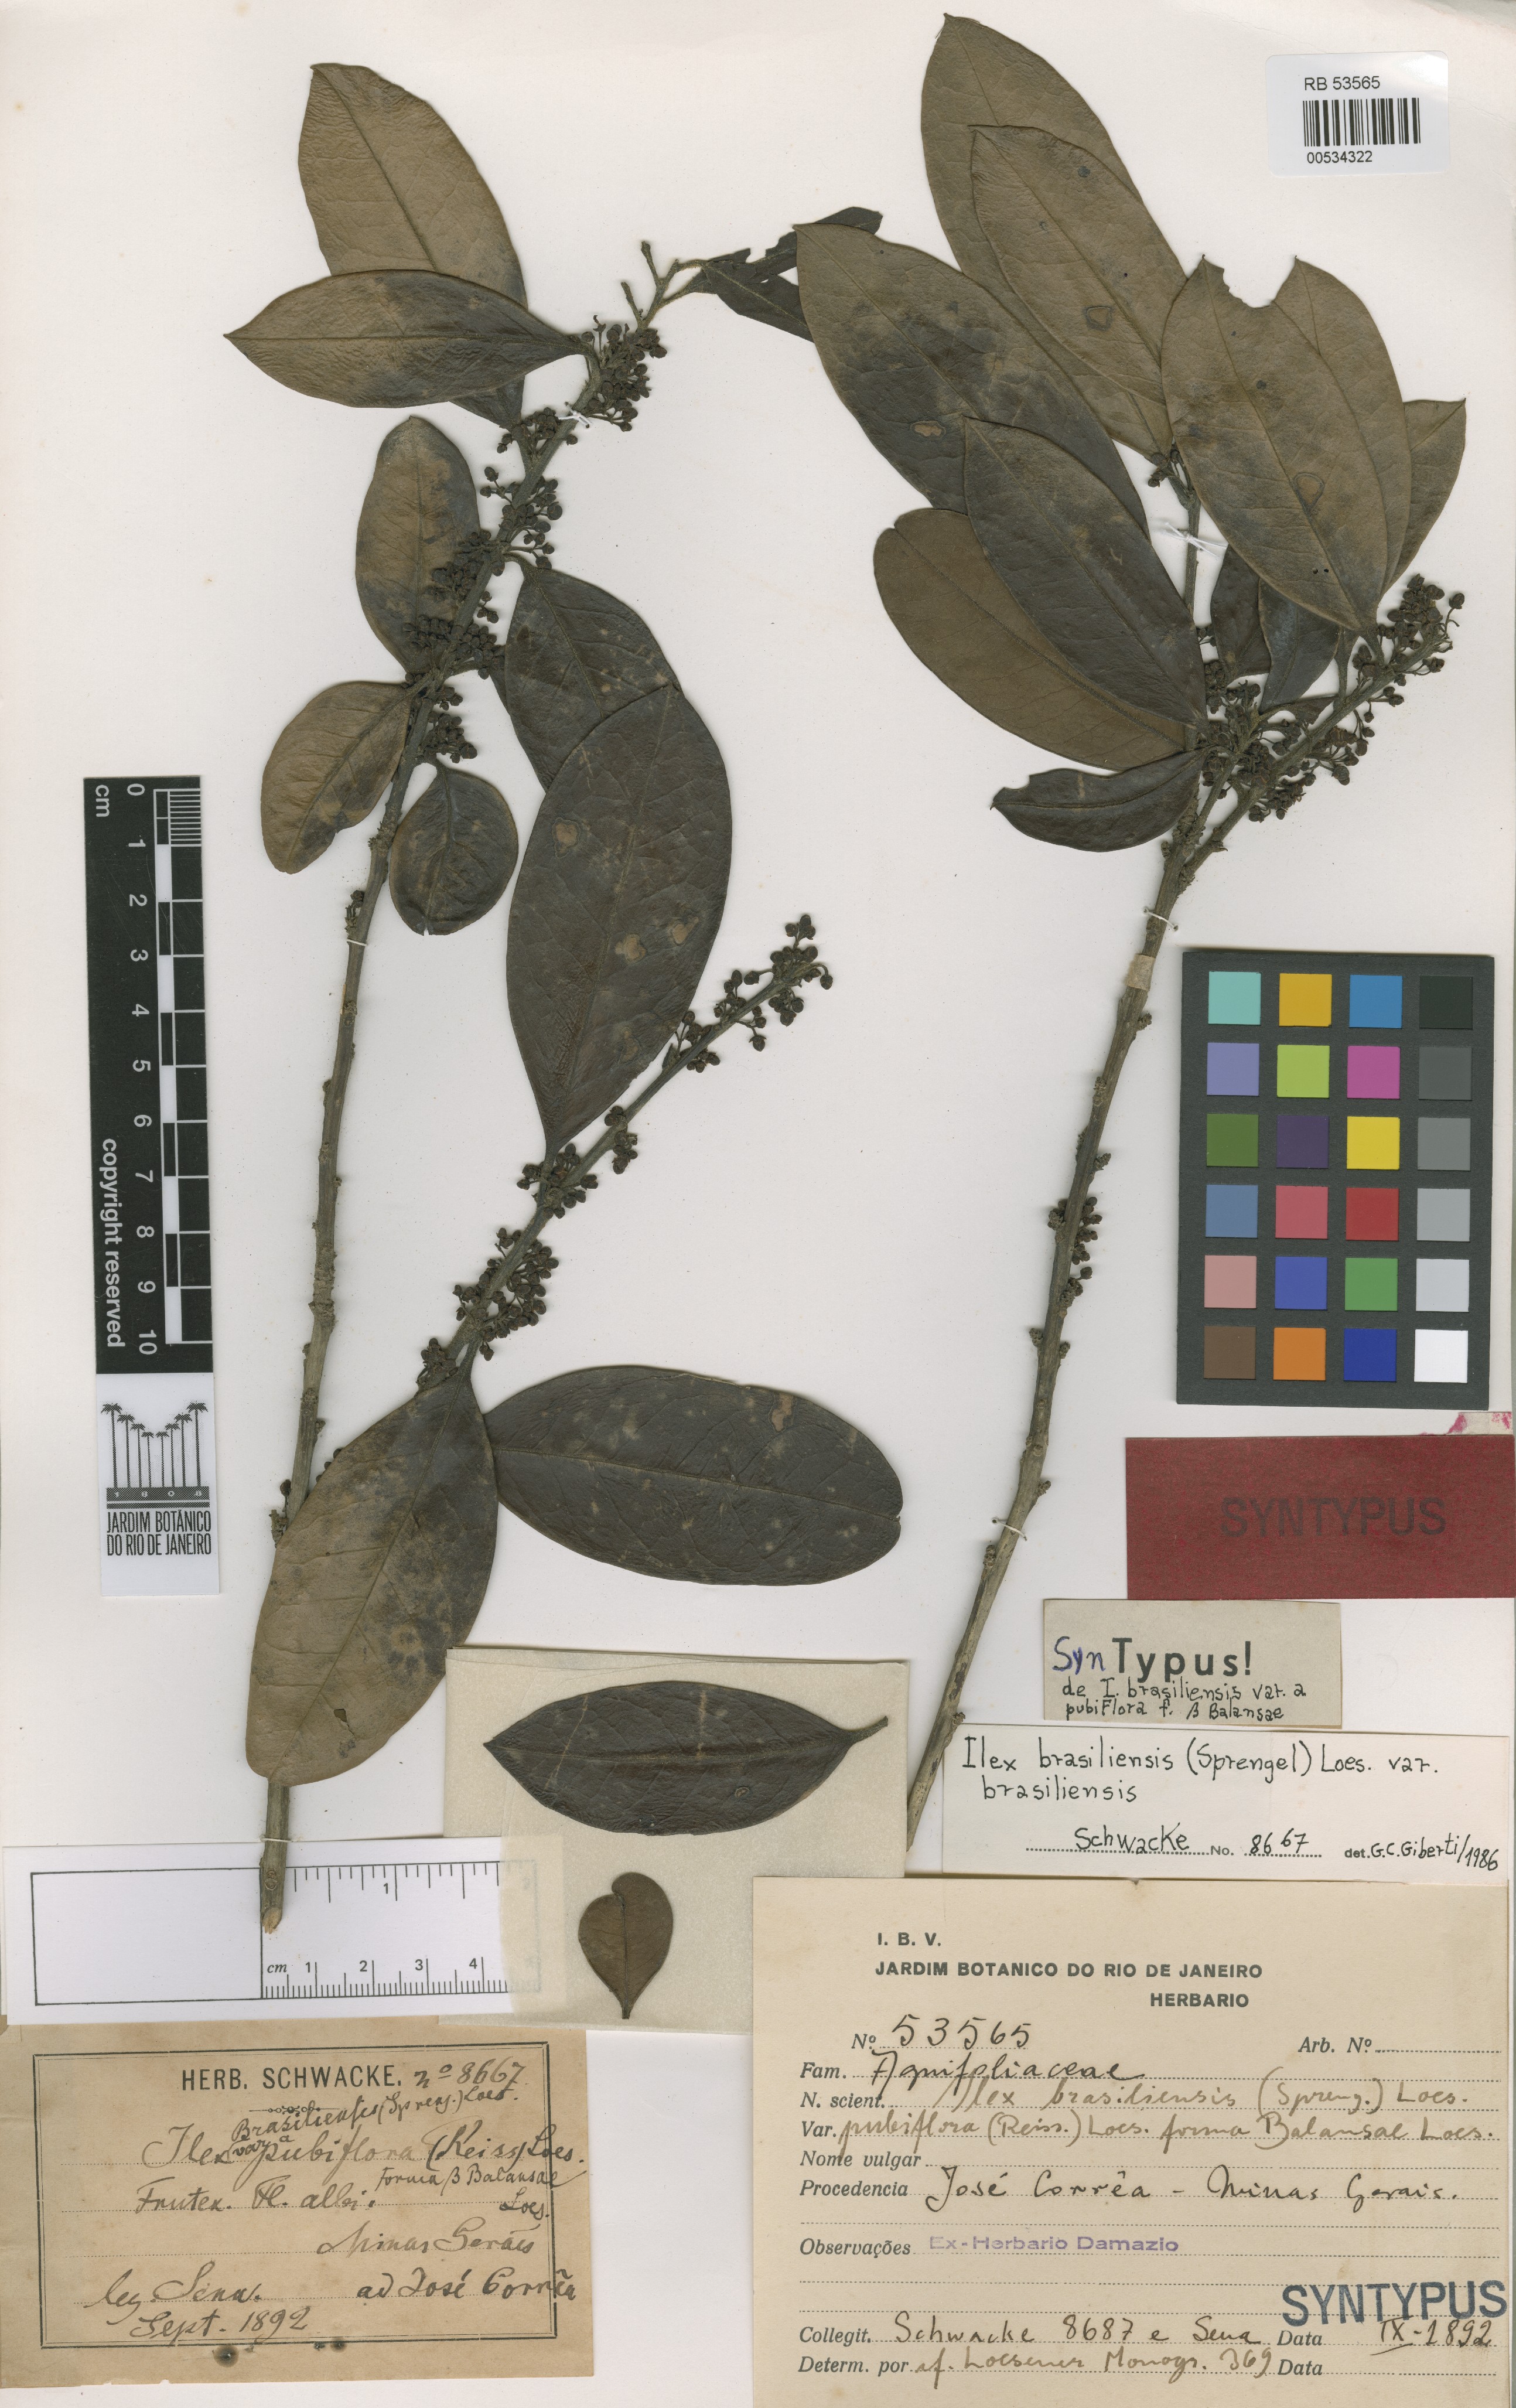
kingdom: Plantae
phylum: Tracheophyta
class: Magnoliopsida
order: Aquifoliales
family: Aquifoliaceae
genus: Ilex
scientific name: Ilex brasiliensis
